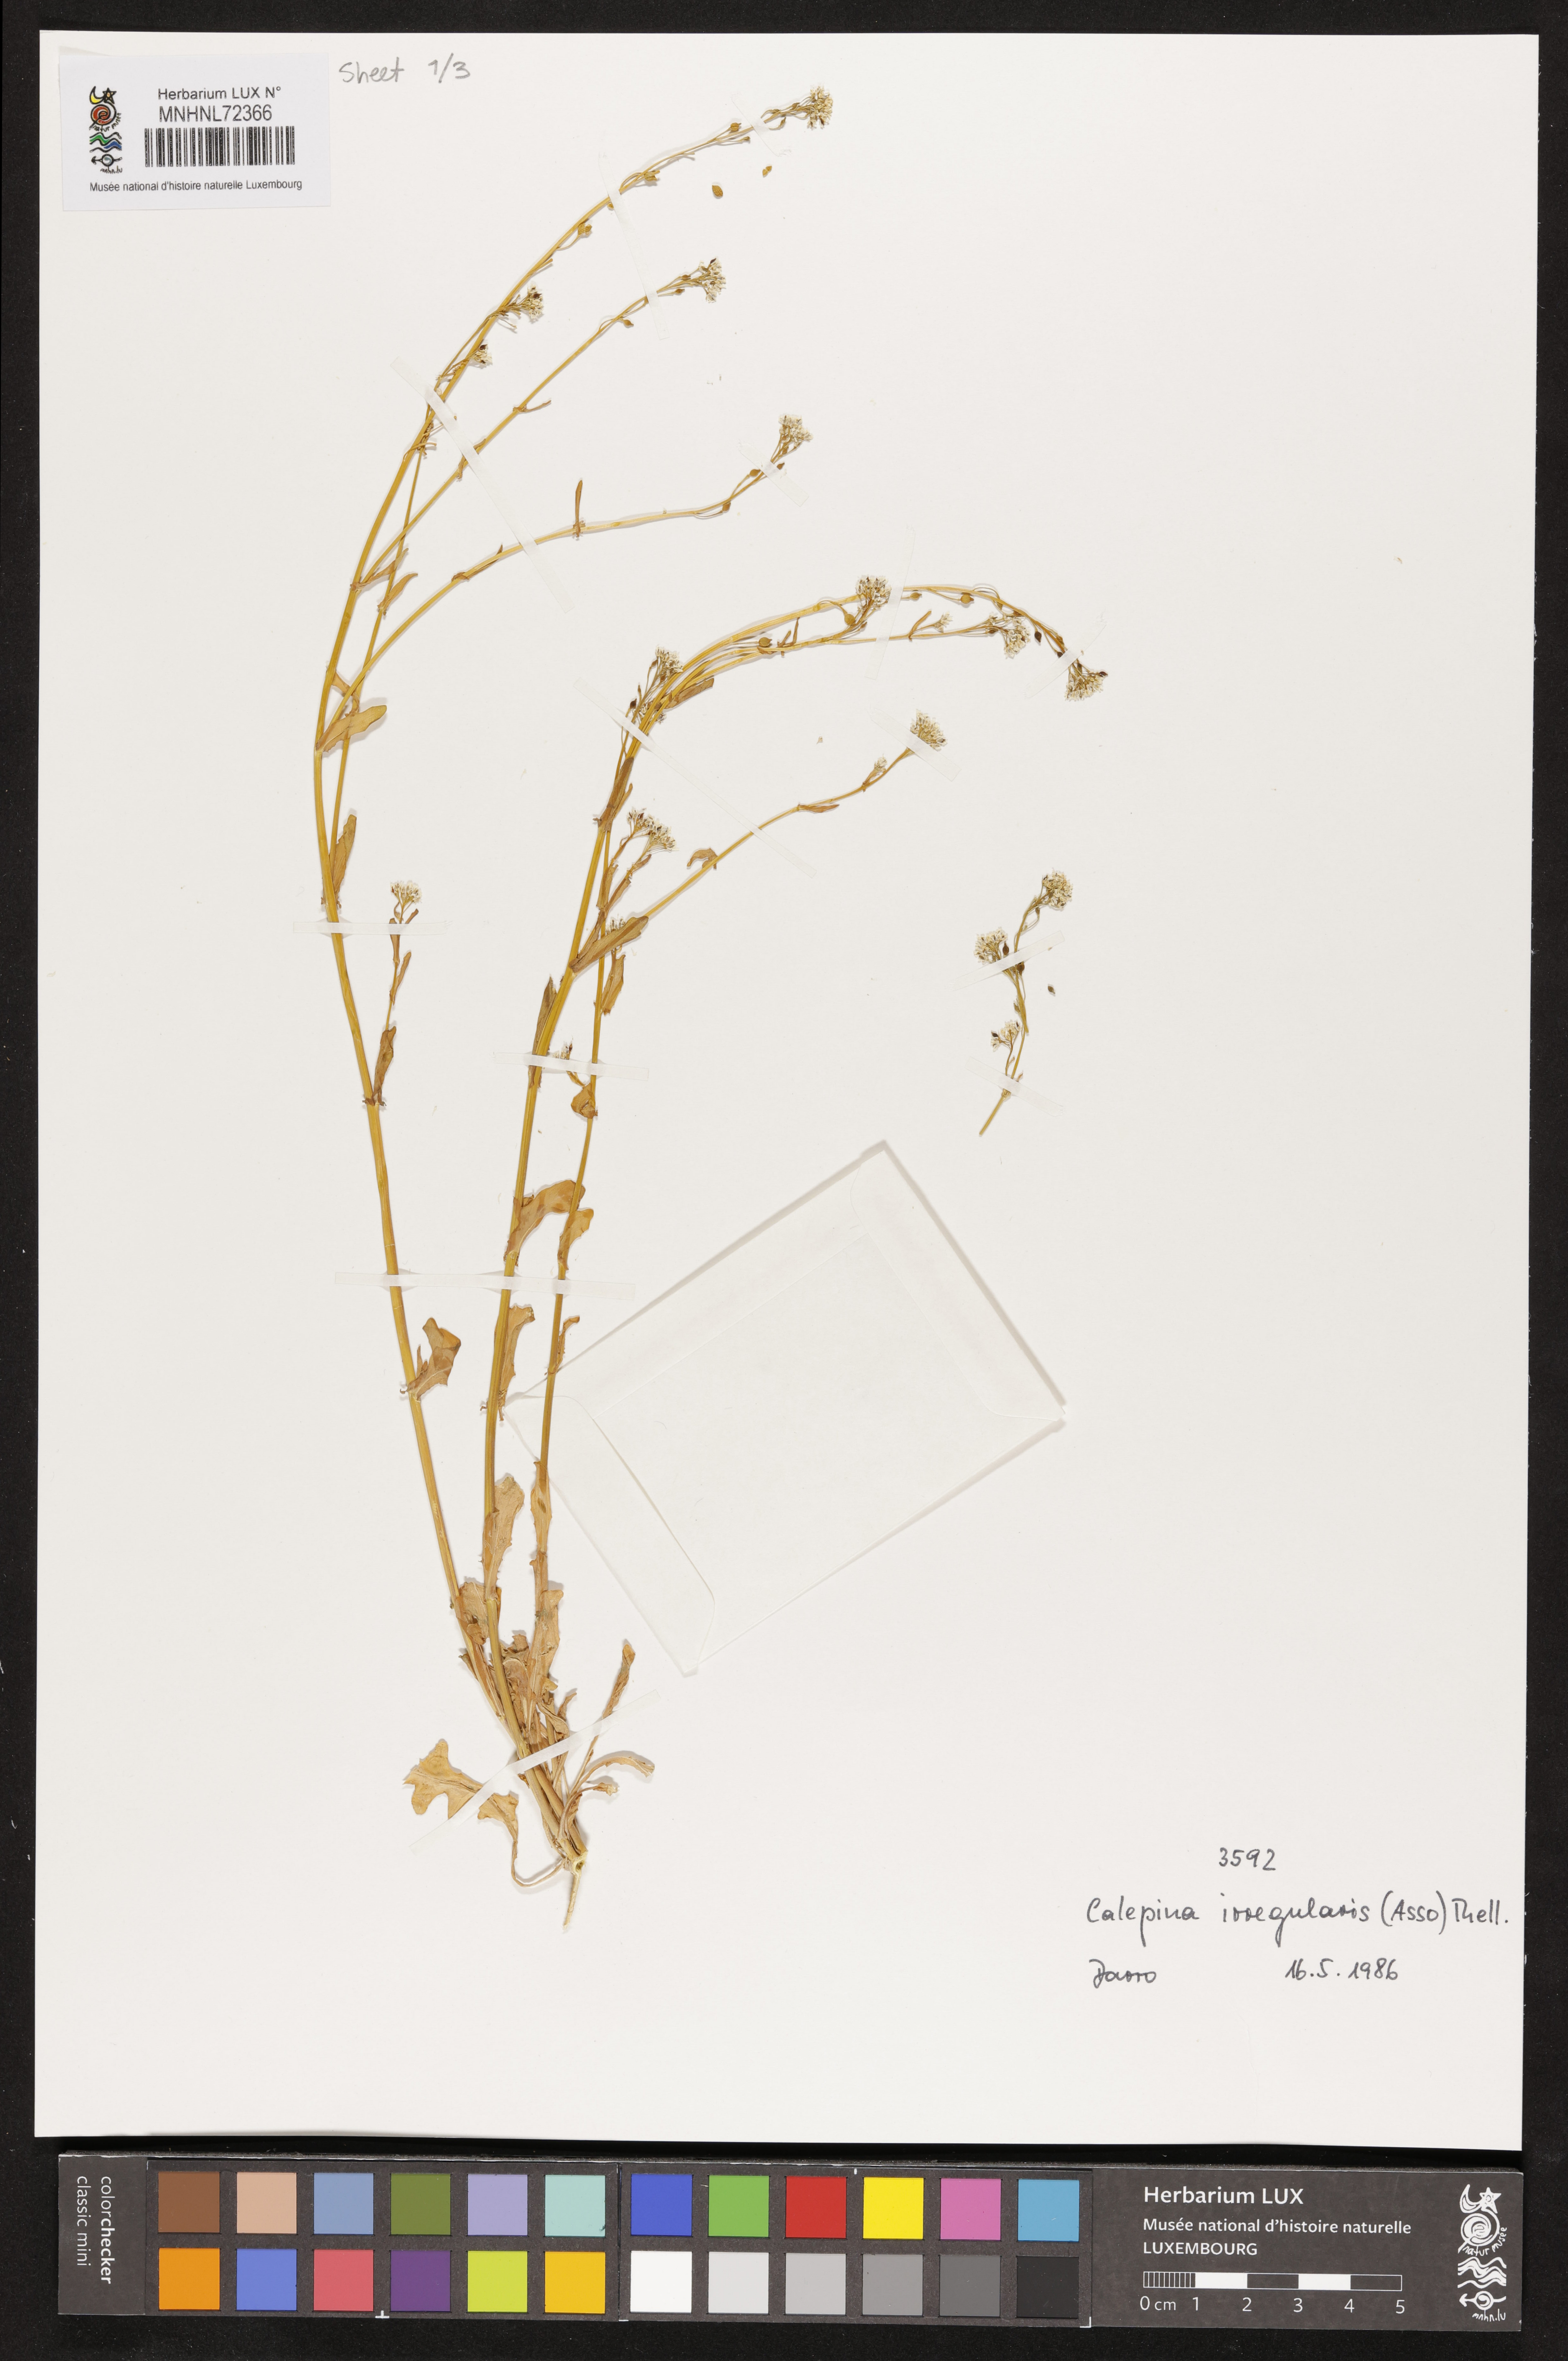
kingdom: Plantae
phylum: Tracheophyta
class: Magnoliopsida
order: Brassicales
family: Brassicaceae
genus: Calepina
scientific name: Calepina irregularis
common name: White ballmustard
